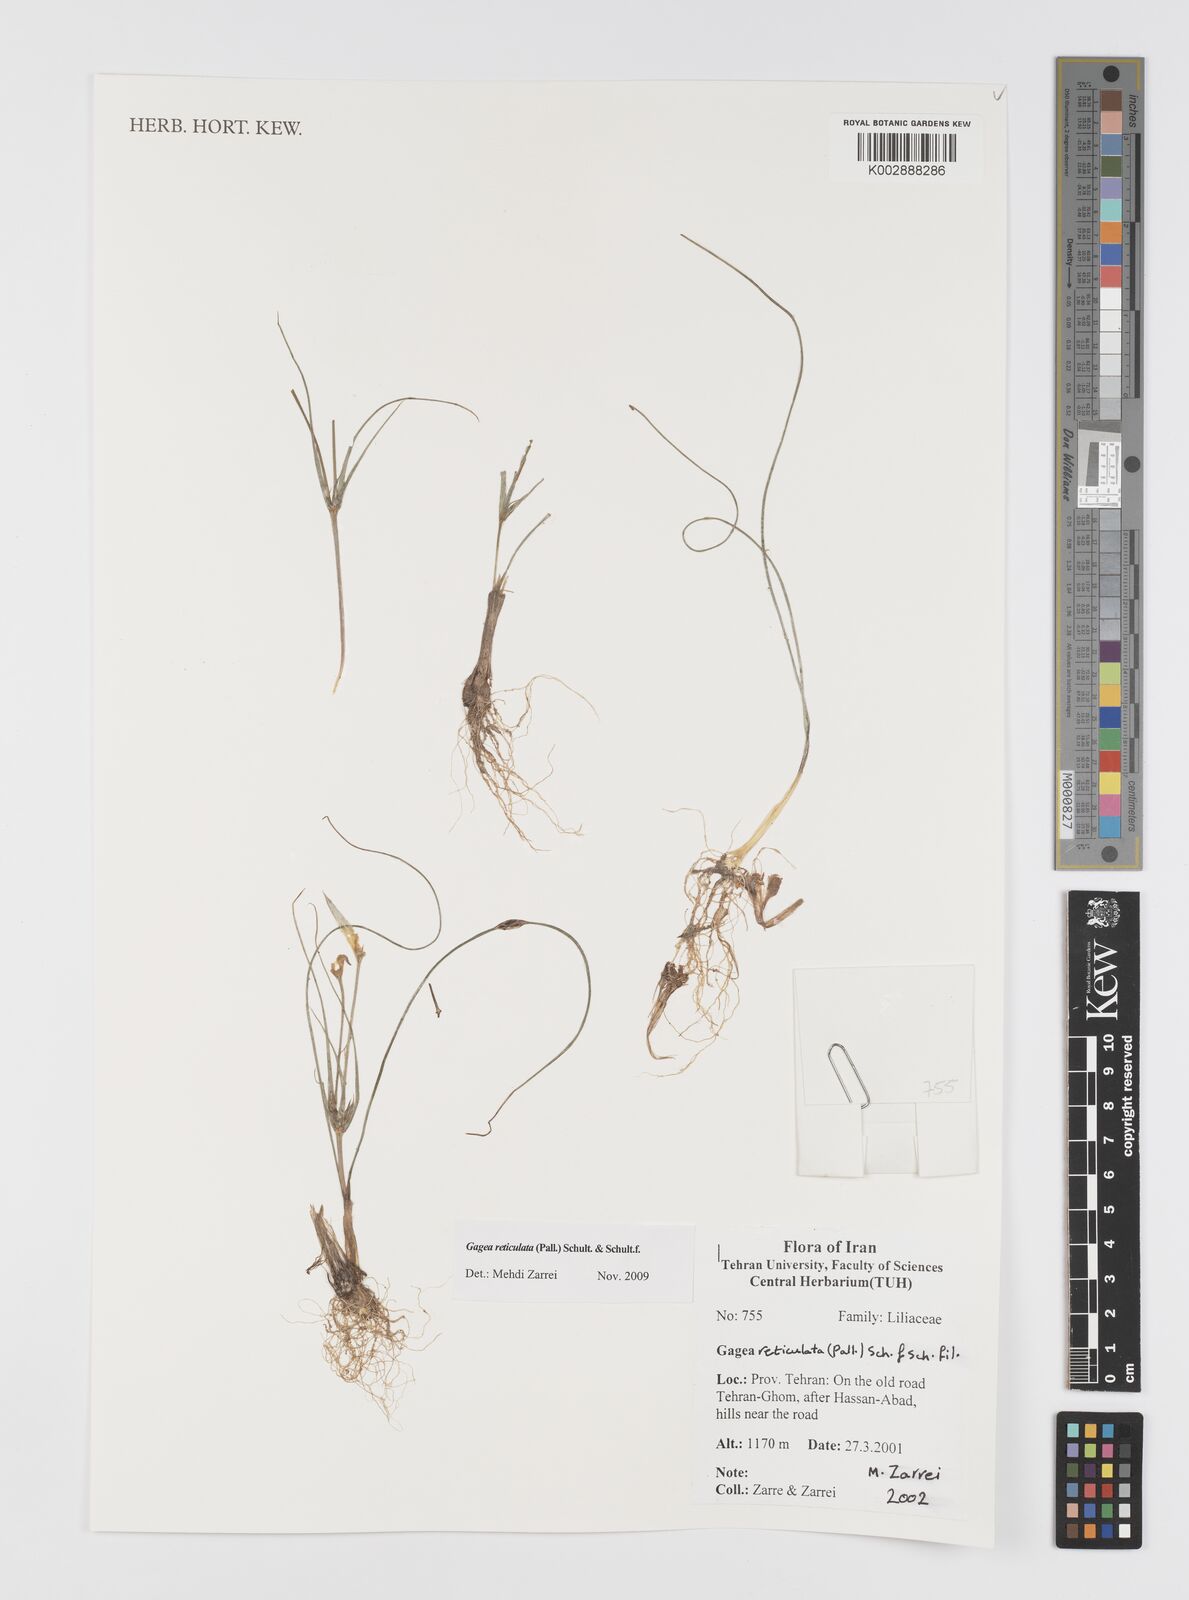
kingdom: Plantae
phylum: Tracheophyta
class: Liliopsida
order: Liliales
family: Liliaceae
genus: Gagea
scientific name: Gagea reticulata
